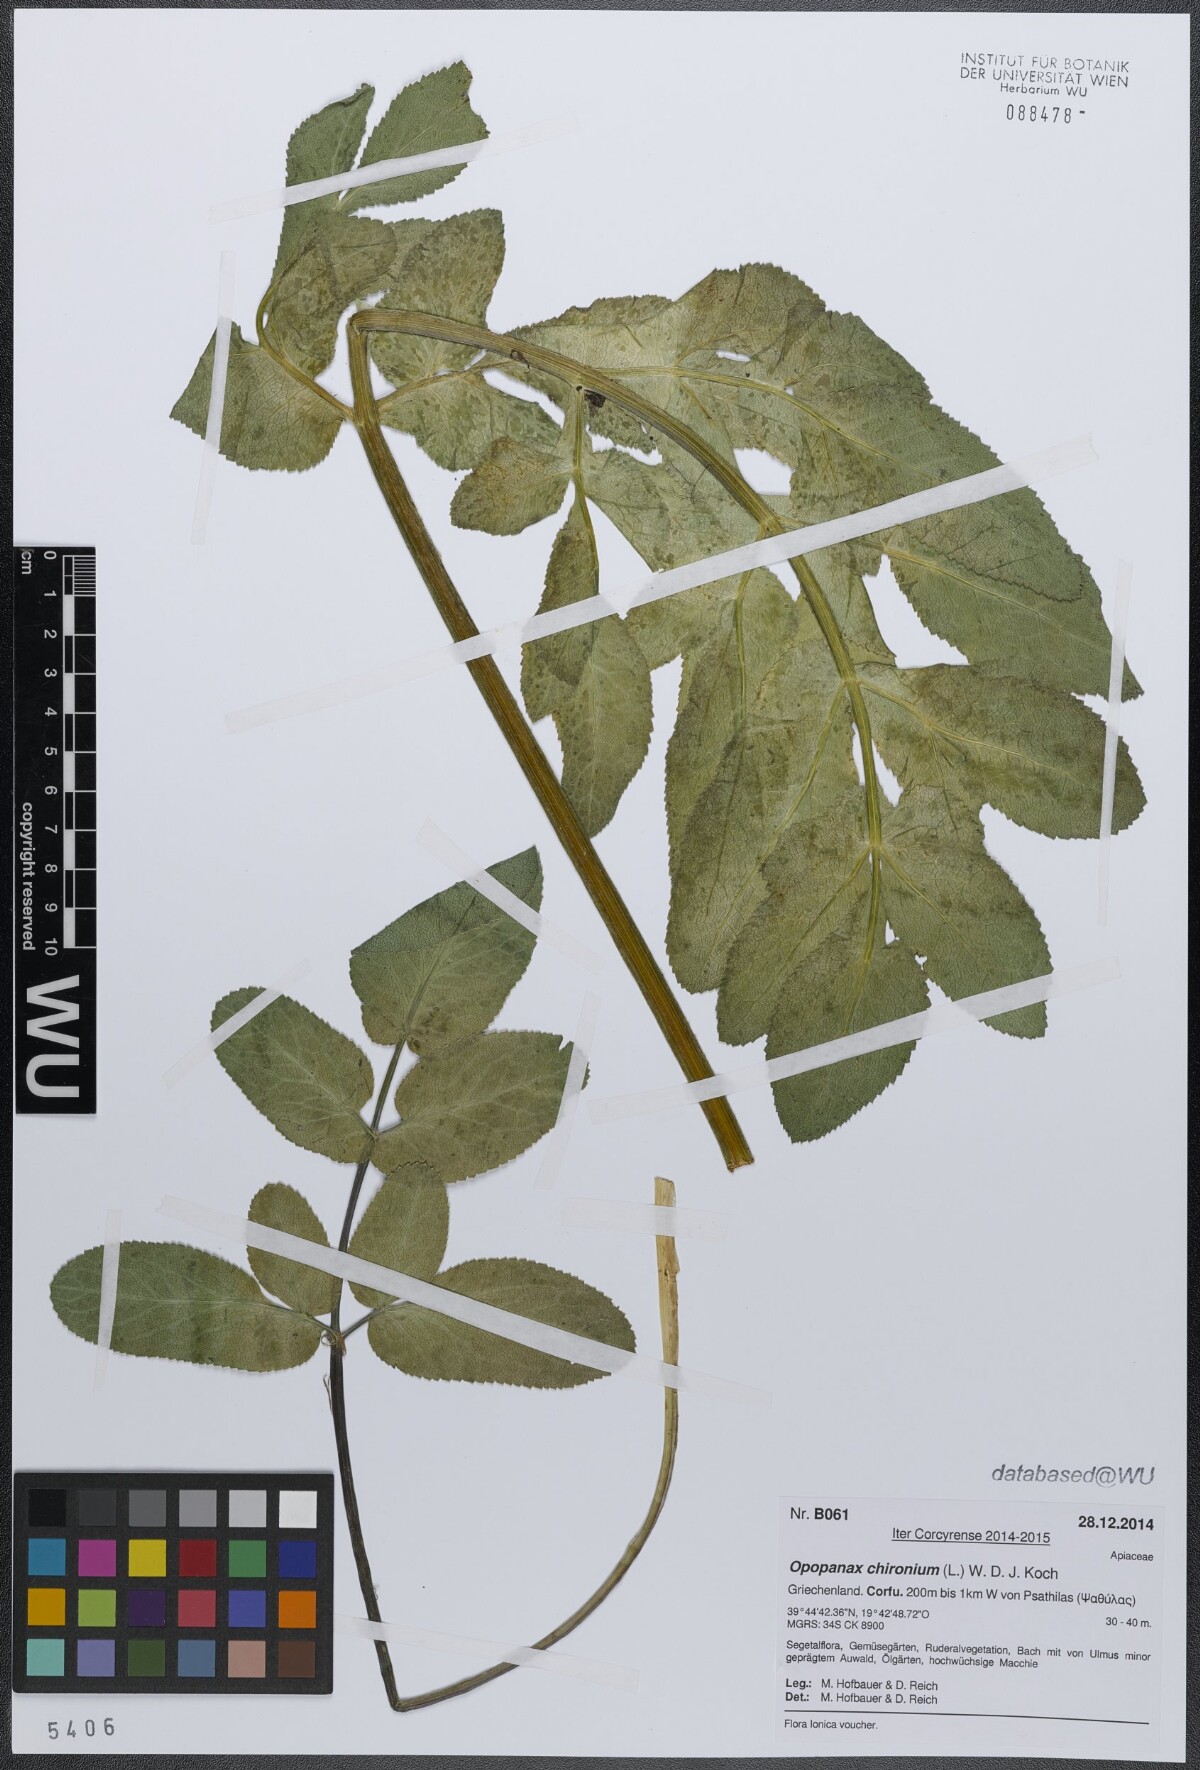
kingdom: Plantae
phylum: Tracheophyta
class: Magnoliopsida
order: Apiales
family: Apiaceae
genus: Opopanax
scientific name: Opopanax chironium
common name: Hercules-all-heal
